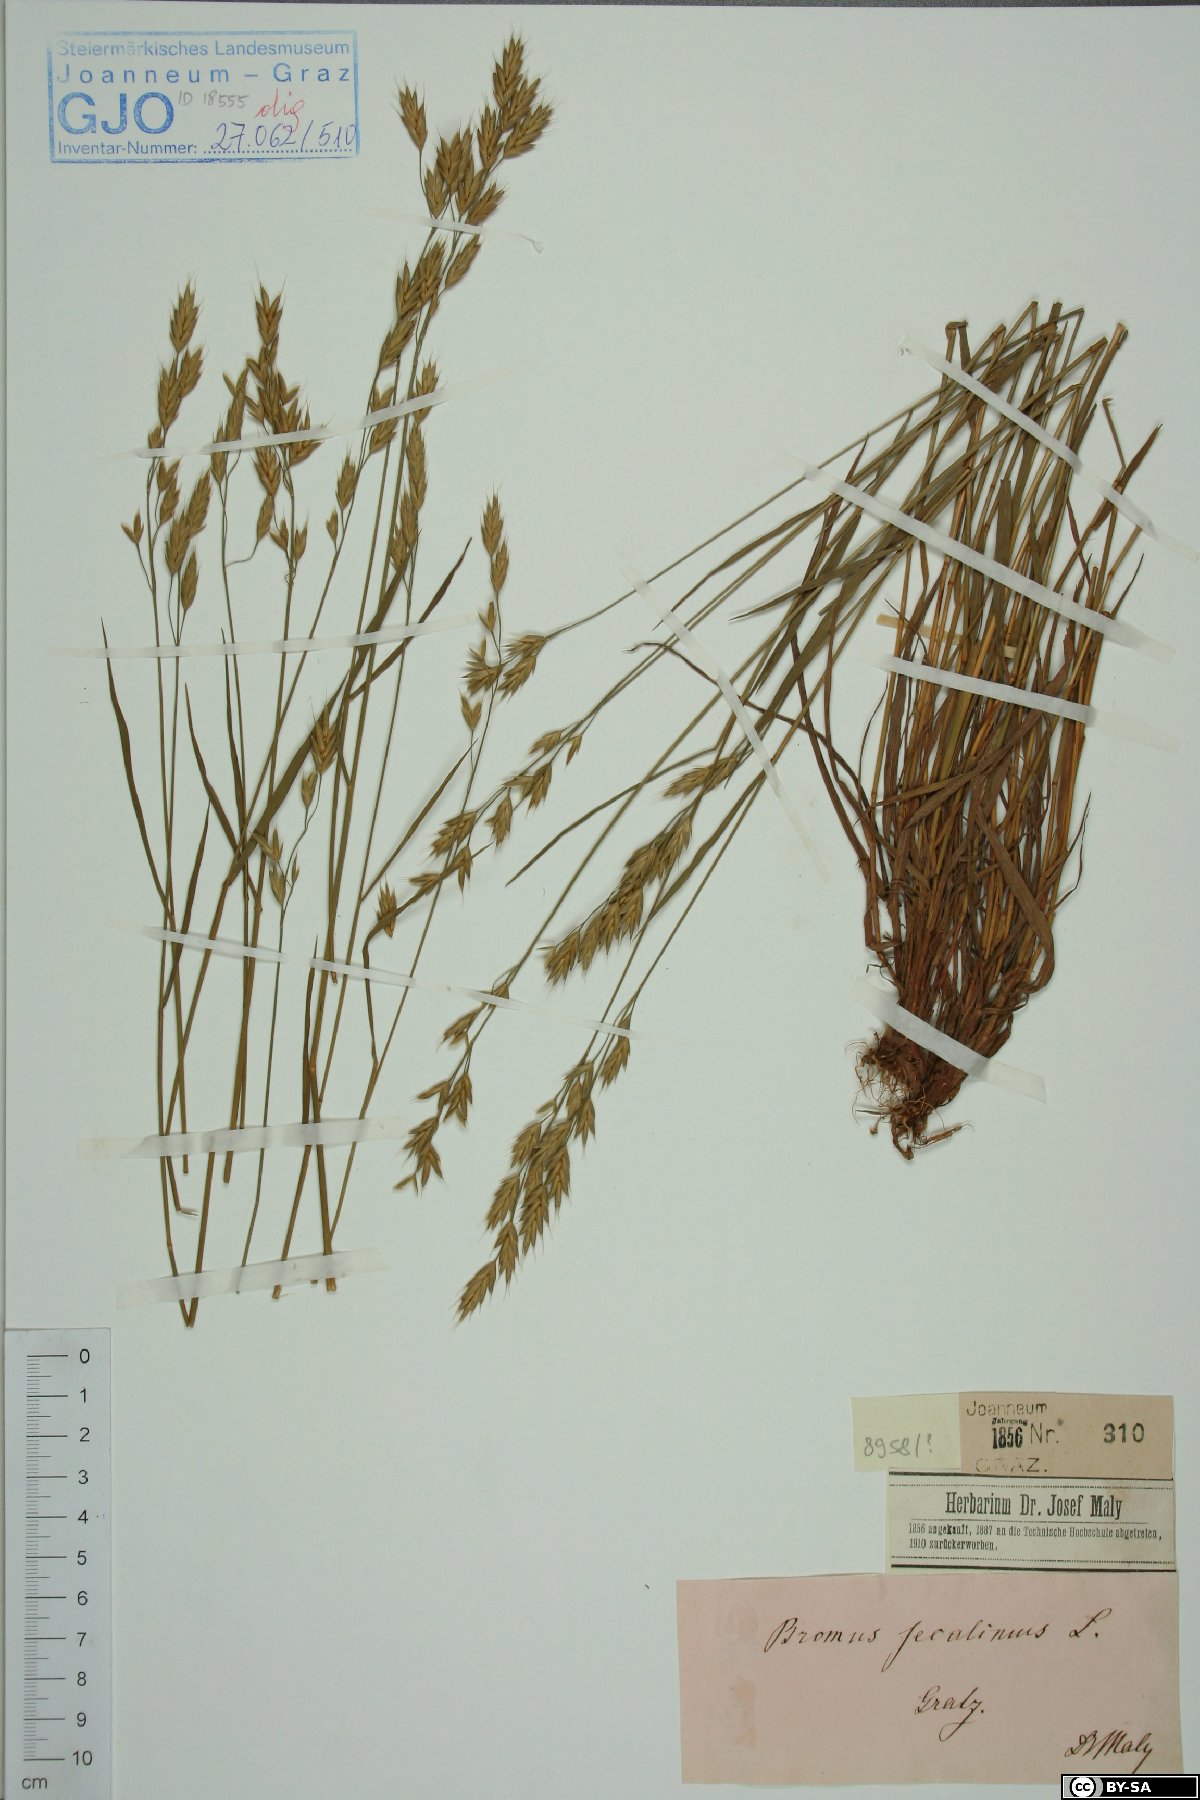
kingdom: Plantae
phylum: Tracheophyta
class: Liliopsida
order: Poales
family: Poaceae
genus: Bromus
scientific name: Bromus secalinus
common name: Rye brome
